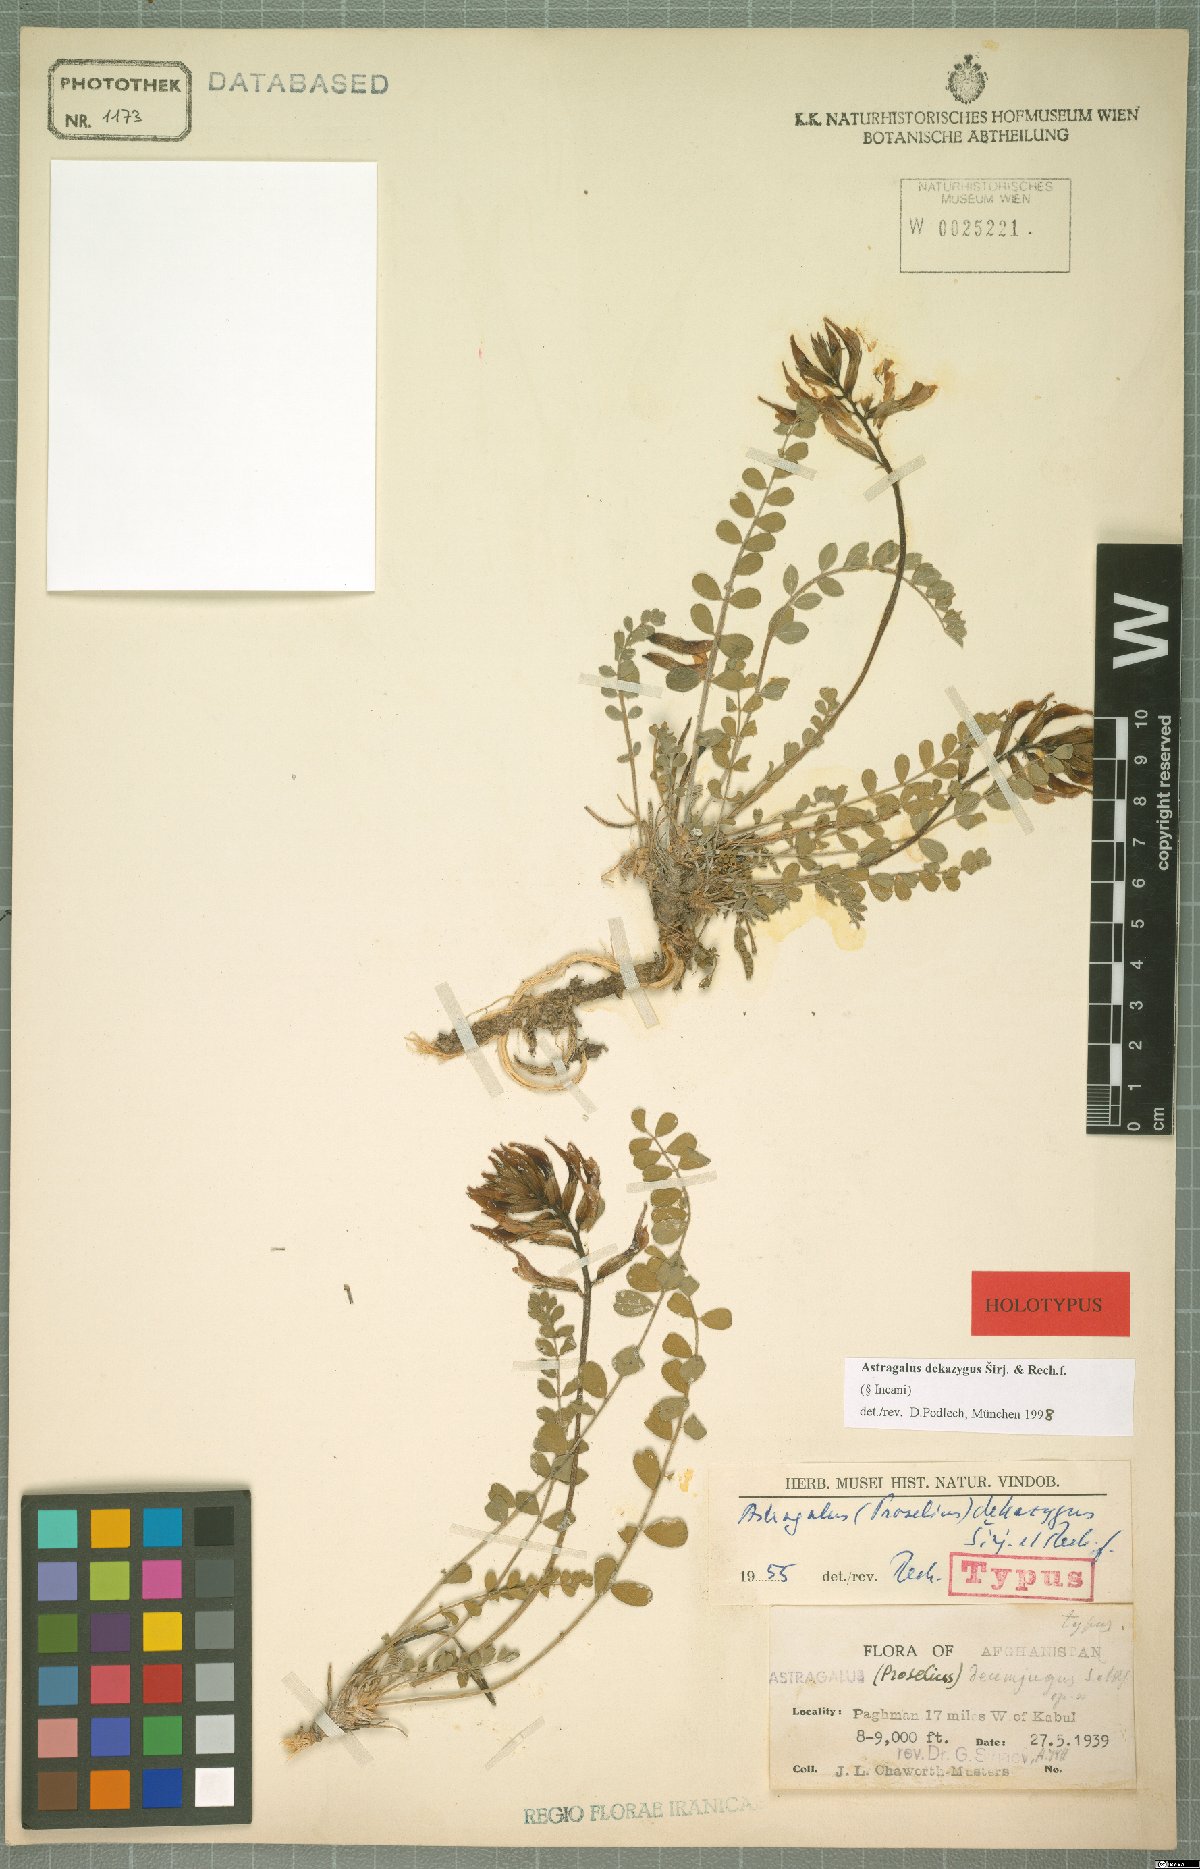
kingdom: Plantae
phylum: Tracheophyta
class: Magnoliopsida
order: Fabales
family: Fabaceae
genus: Astragalus
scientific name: Astragalus dekazygus
